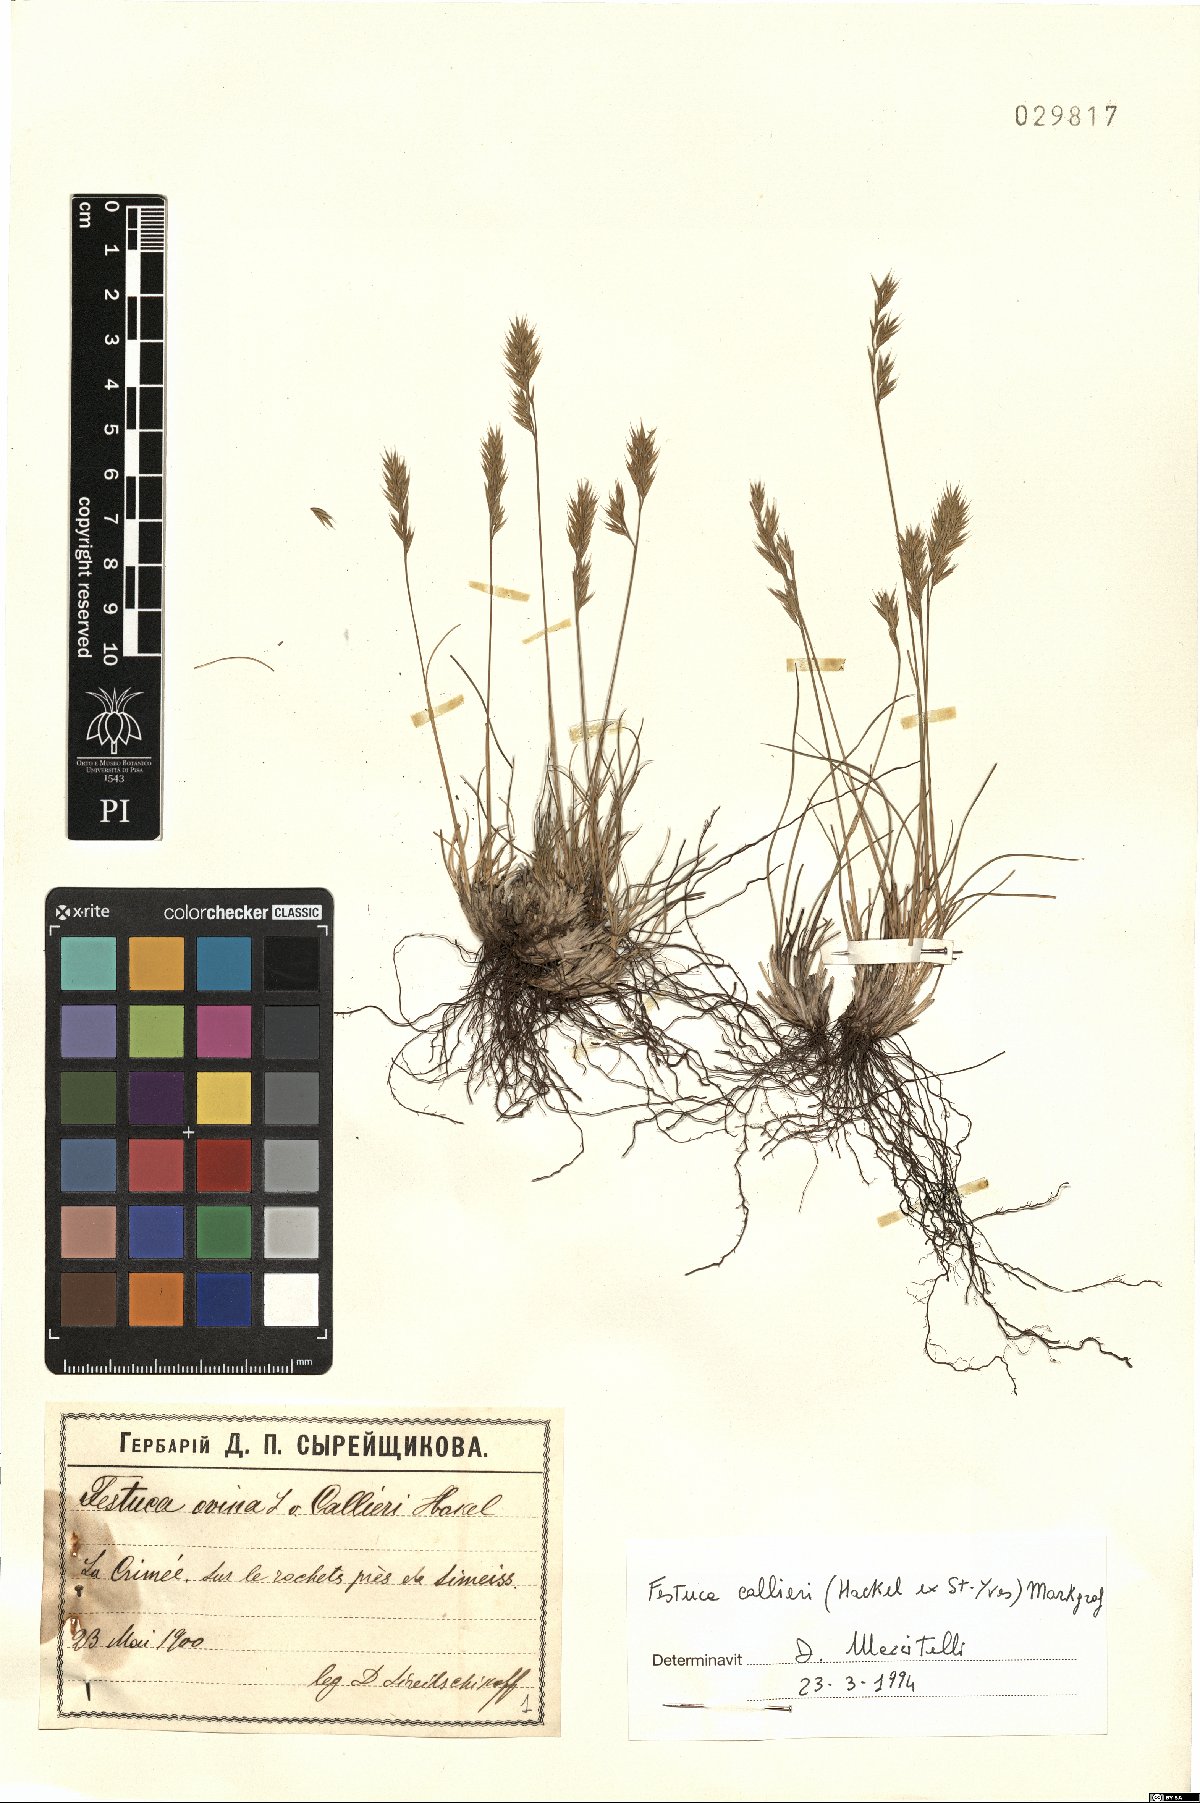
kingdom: Plantae
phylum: Tracheophyta
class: Liliopsida
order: Poales
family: Poaceae
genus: Festuca
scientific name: Festuca callieri
